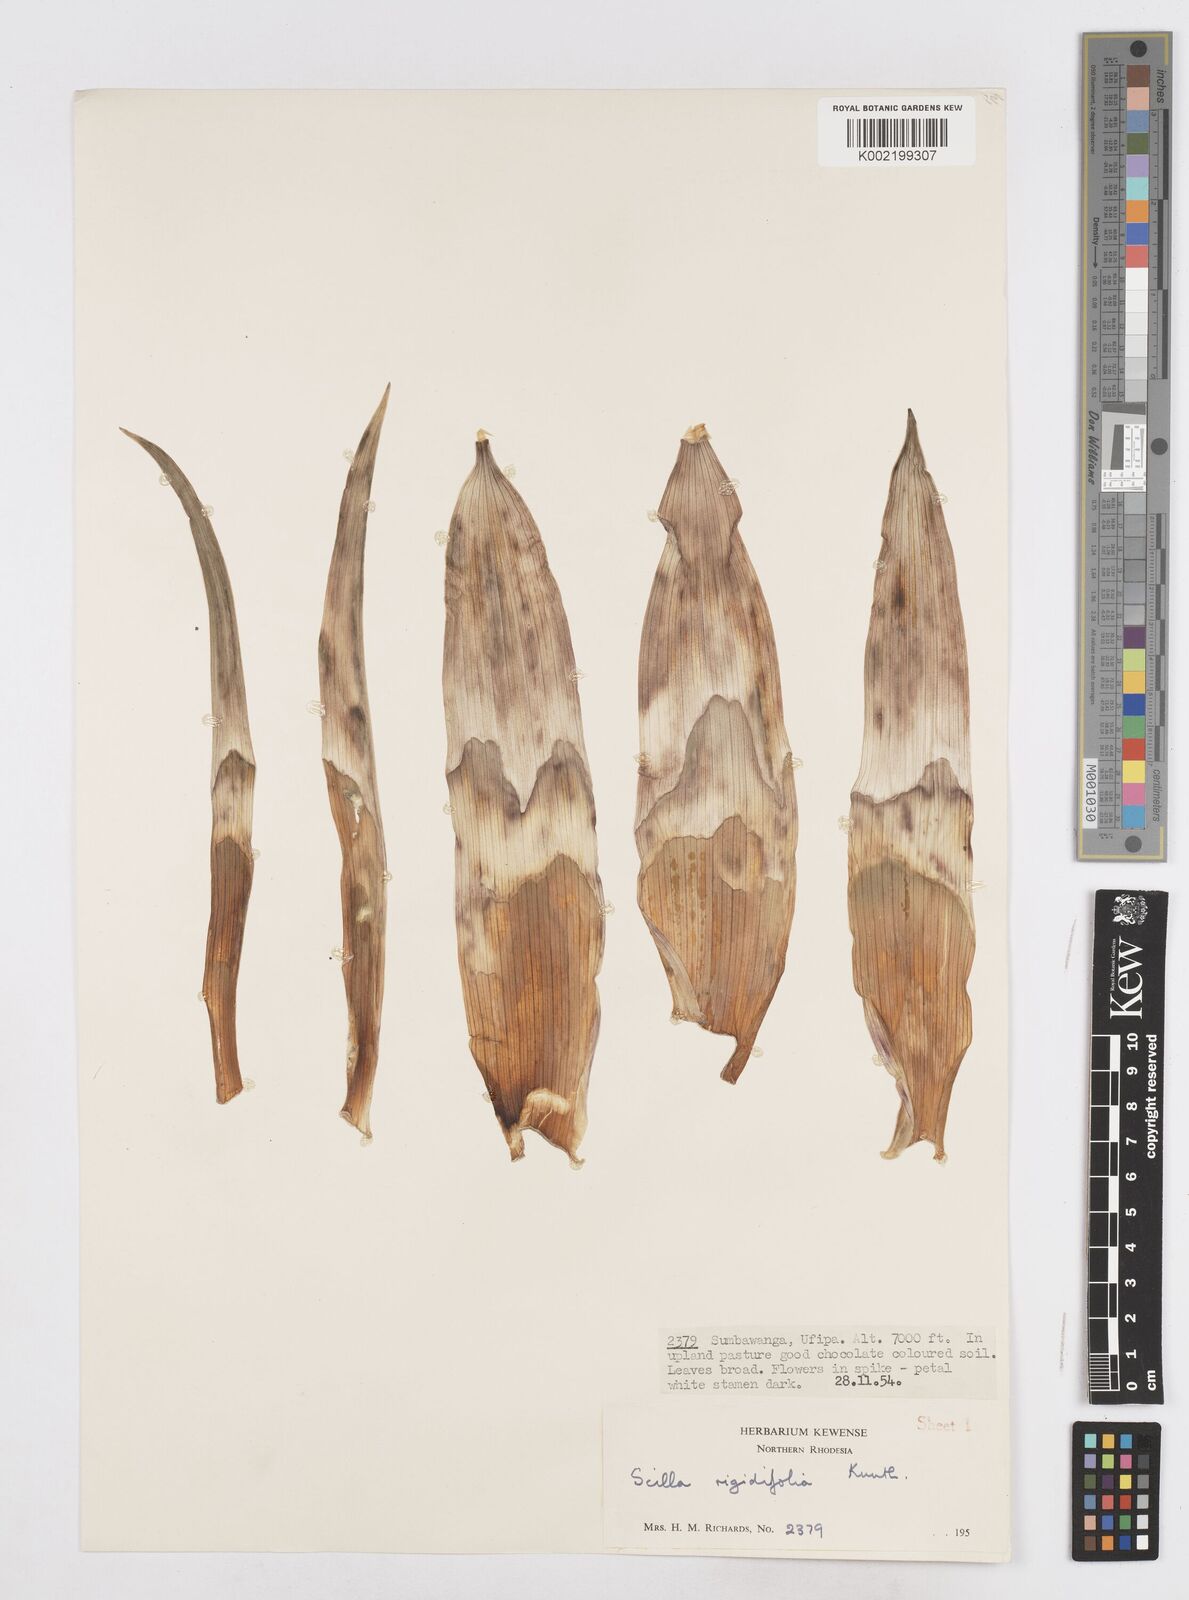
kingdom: Plantae
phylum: Tracheophyta
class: Liliopsida
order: Asparagales
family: Asparagaceae
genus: Schizocarphus
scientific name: Schizocarphus nervosus
